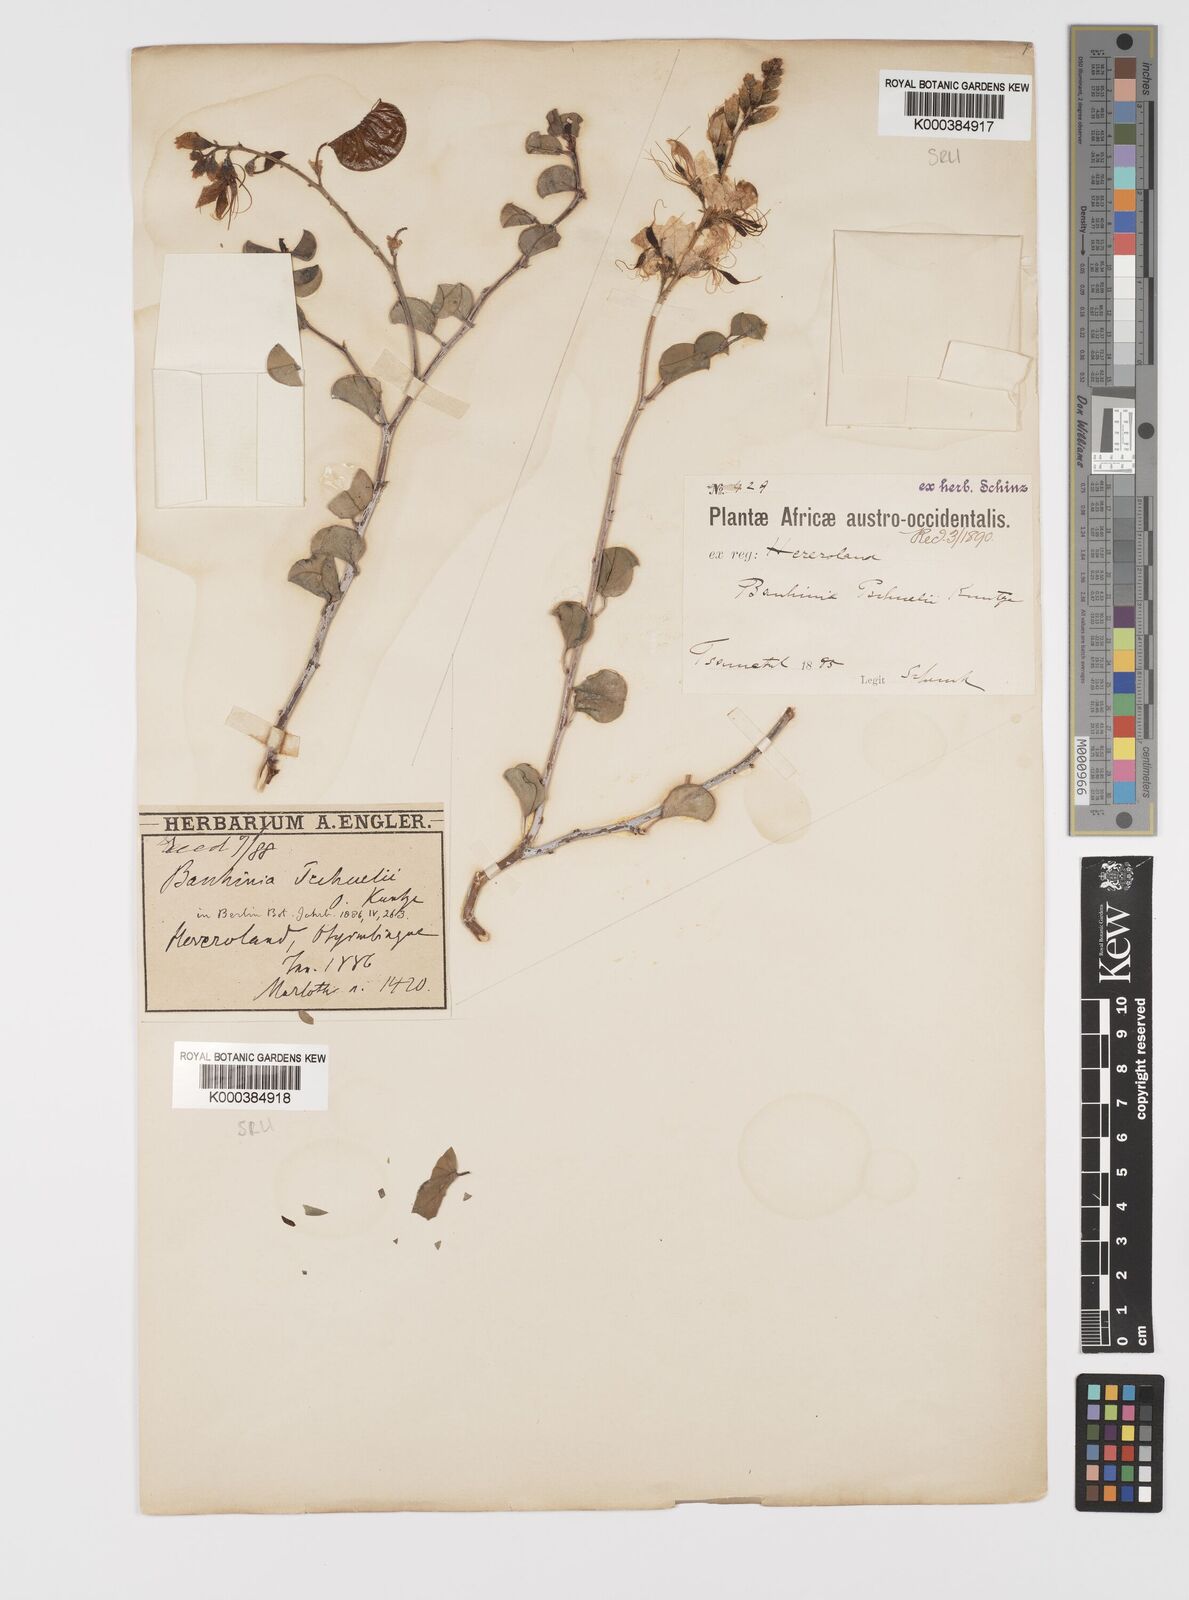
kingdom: Plantae
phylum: Tracheophyta
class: Magnoliopsida
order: Fabales
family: Fabaceae
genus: Bauhinia
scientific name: Bauhinia
